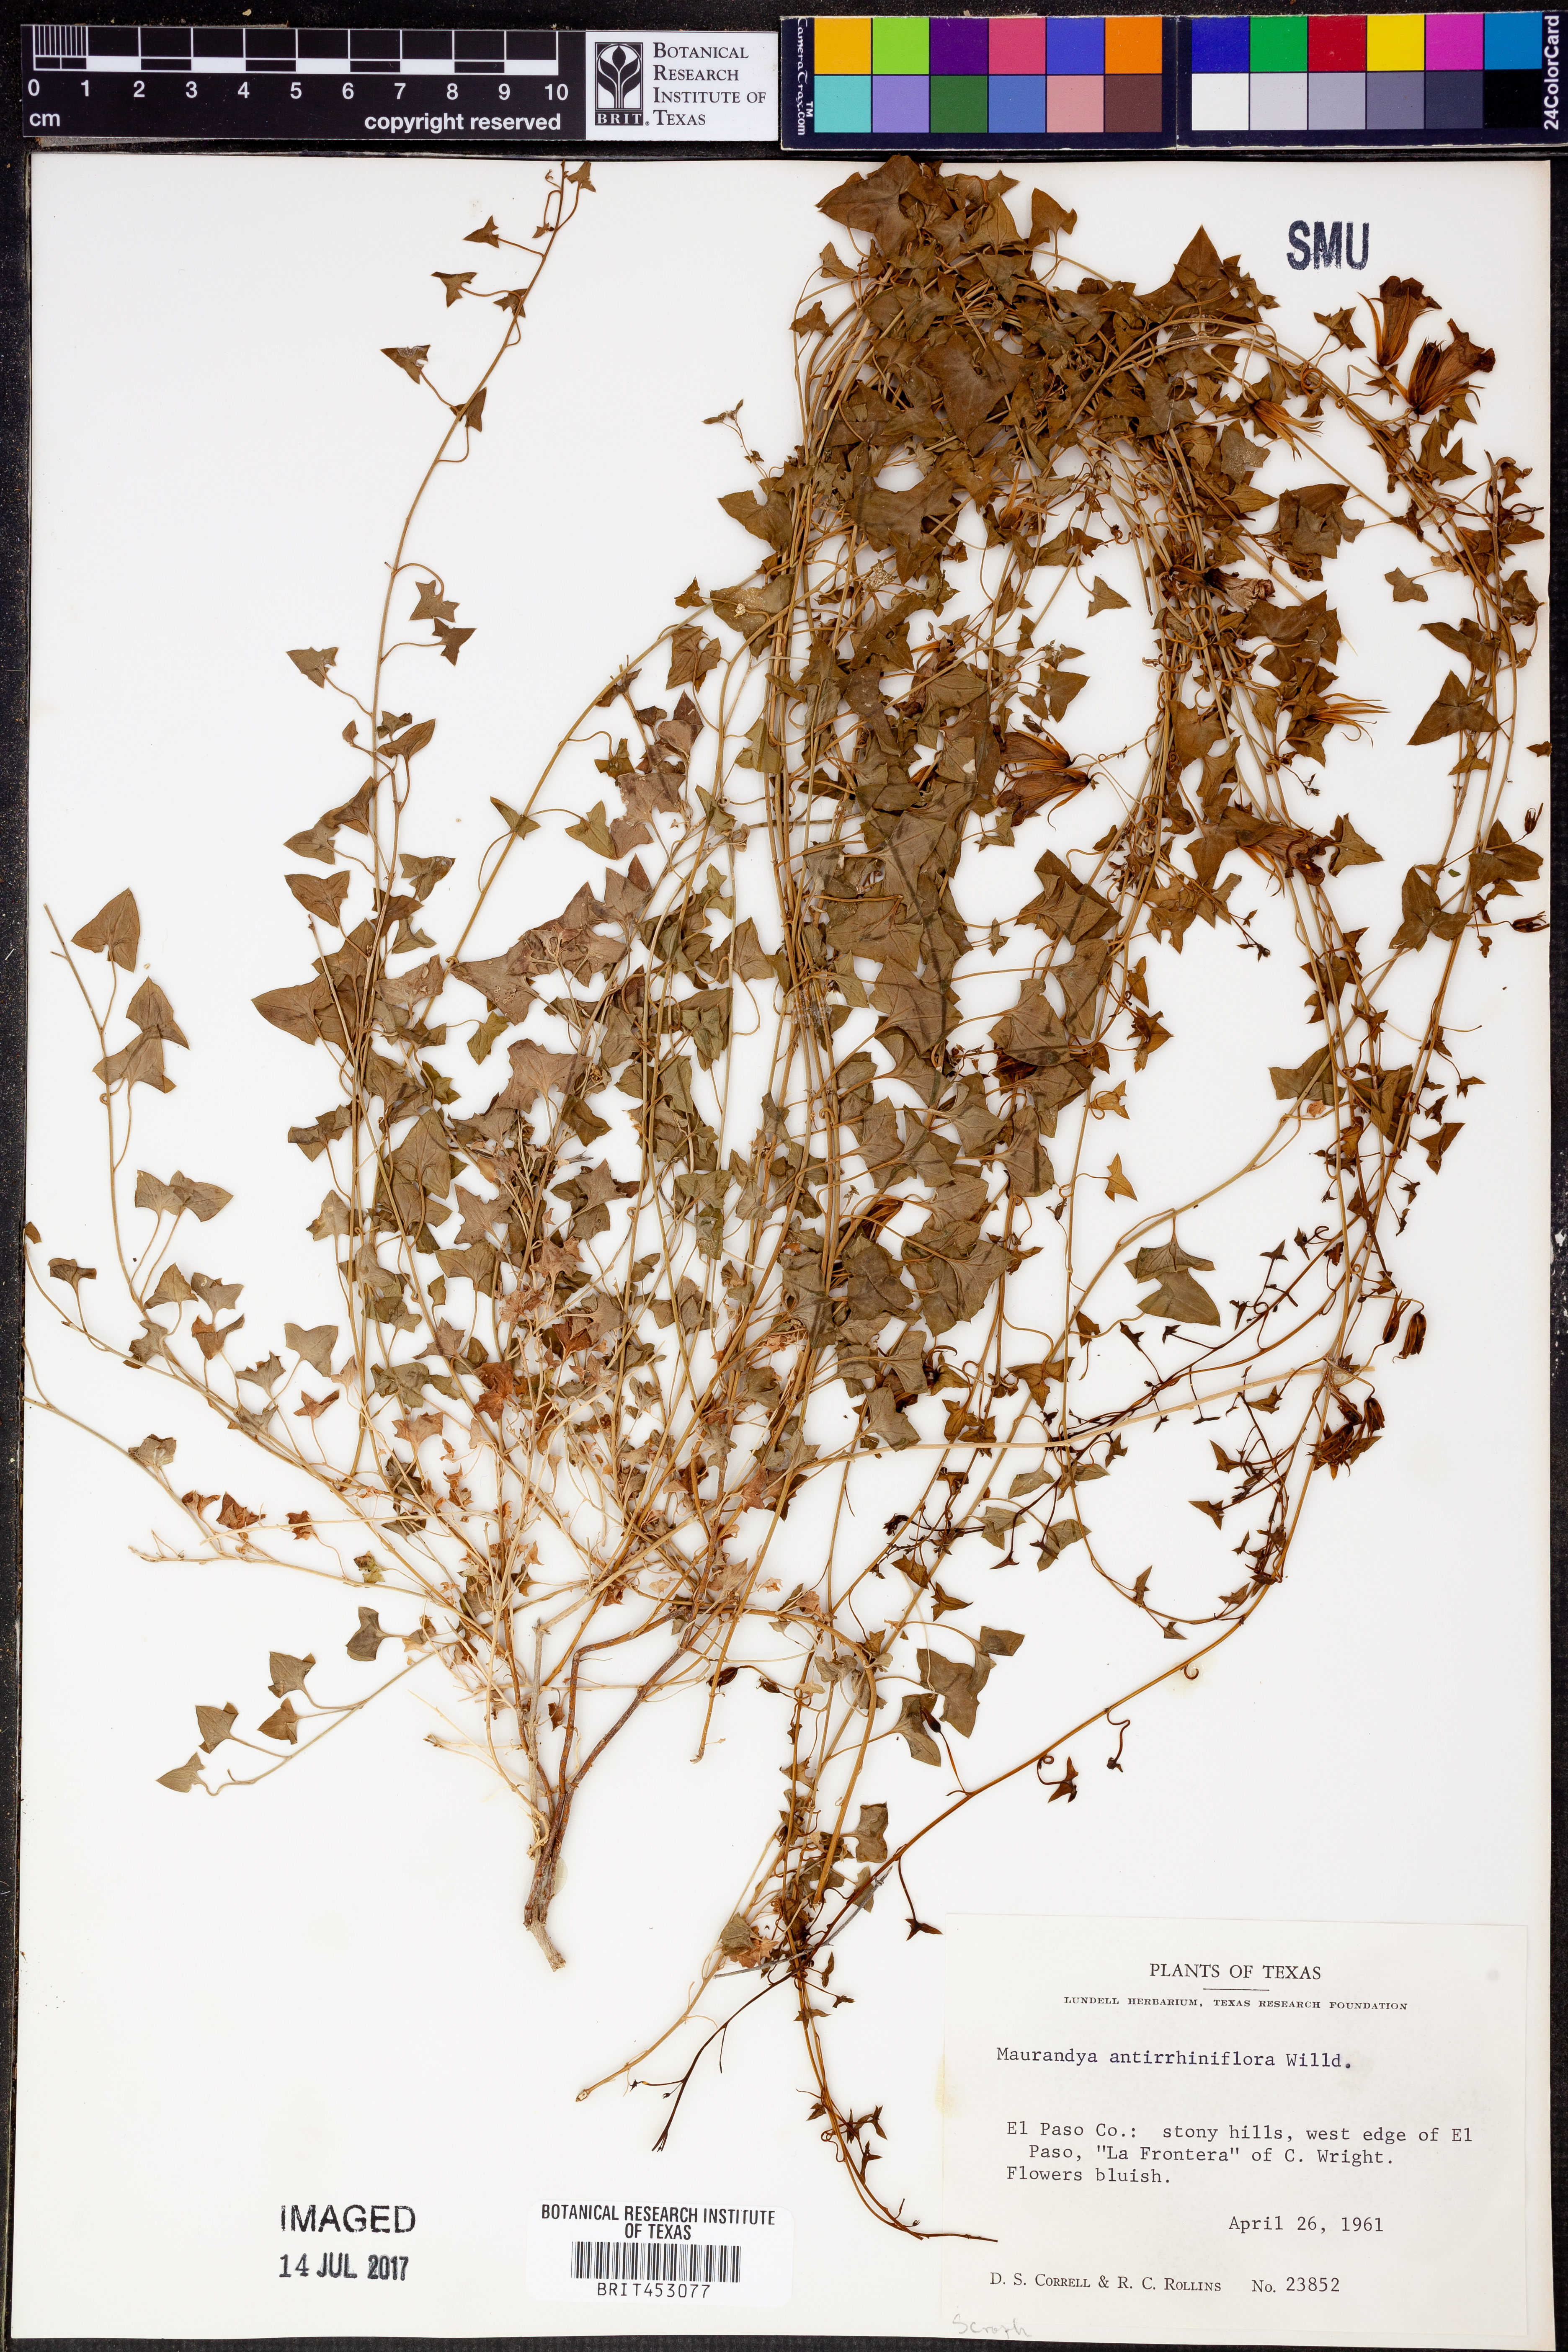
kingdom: Plantae
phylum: Tracheophyta
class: Magnoliopsida
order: Lamiales
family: Plantaginaceae
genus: Maurandella
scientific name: Maurandella antirrhiniflora
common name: Violet twining-snapdragon
